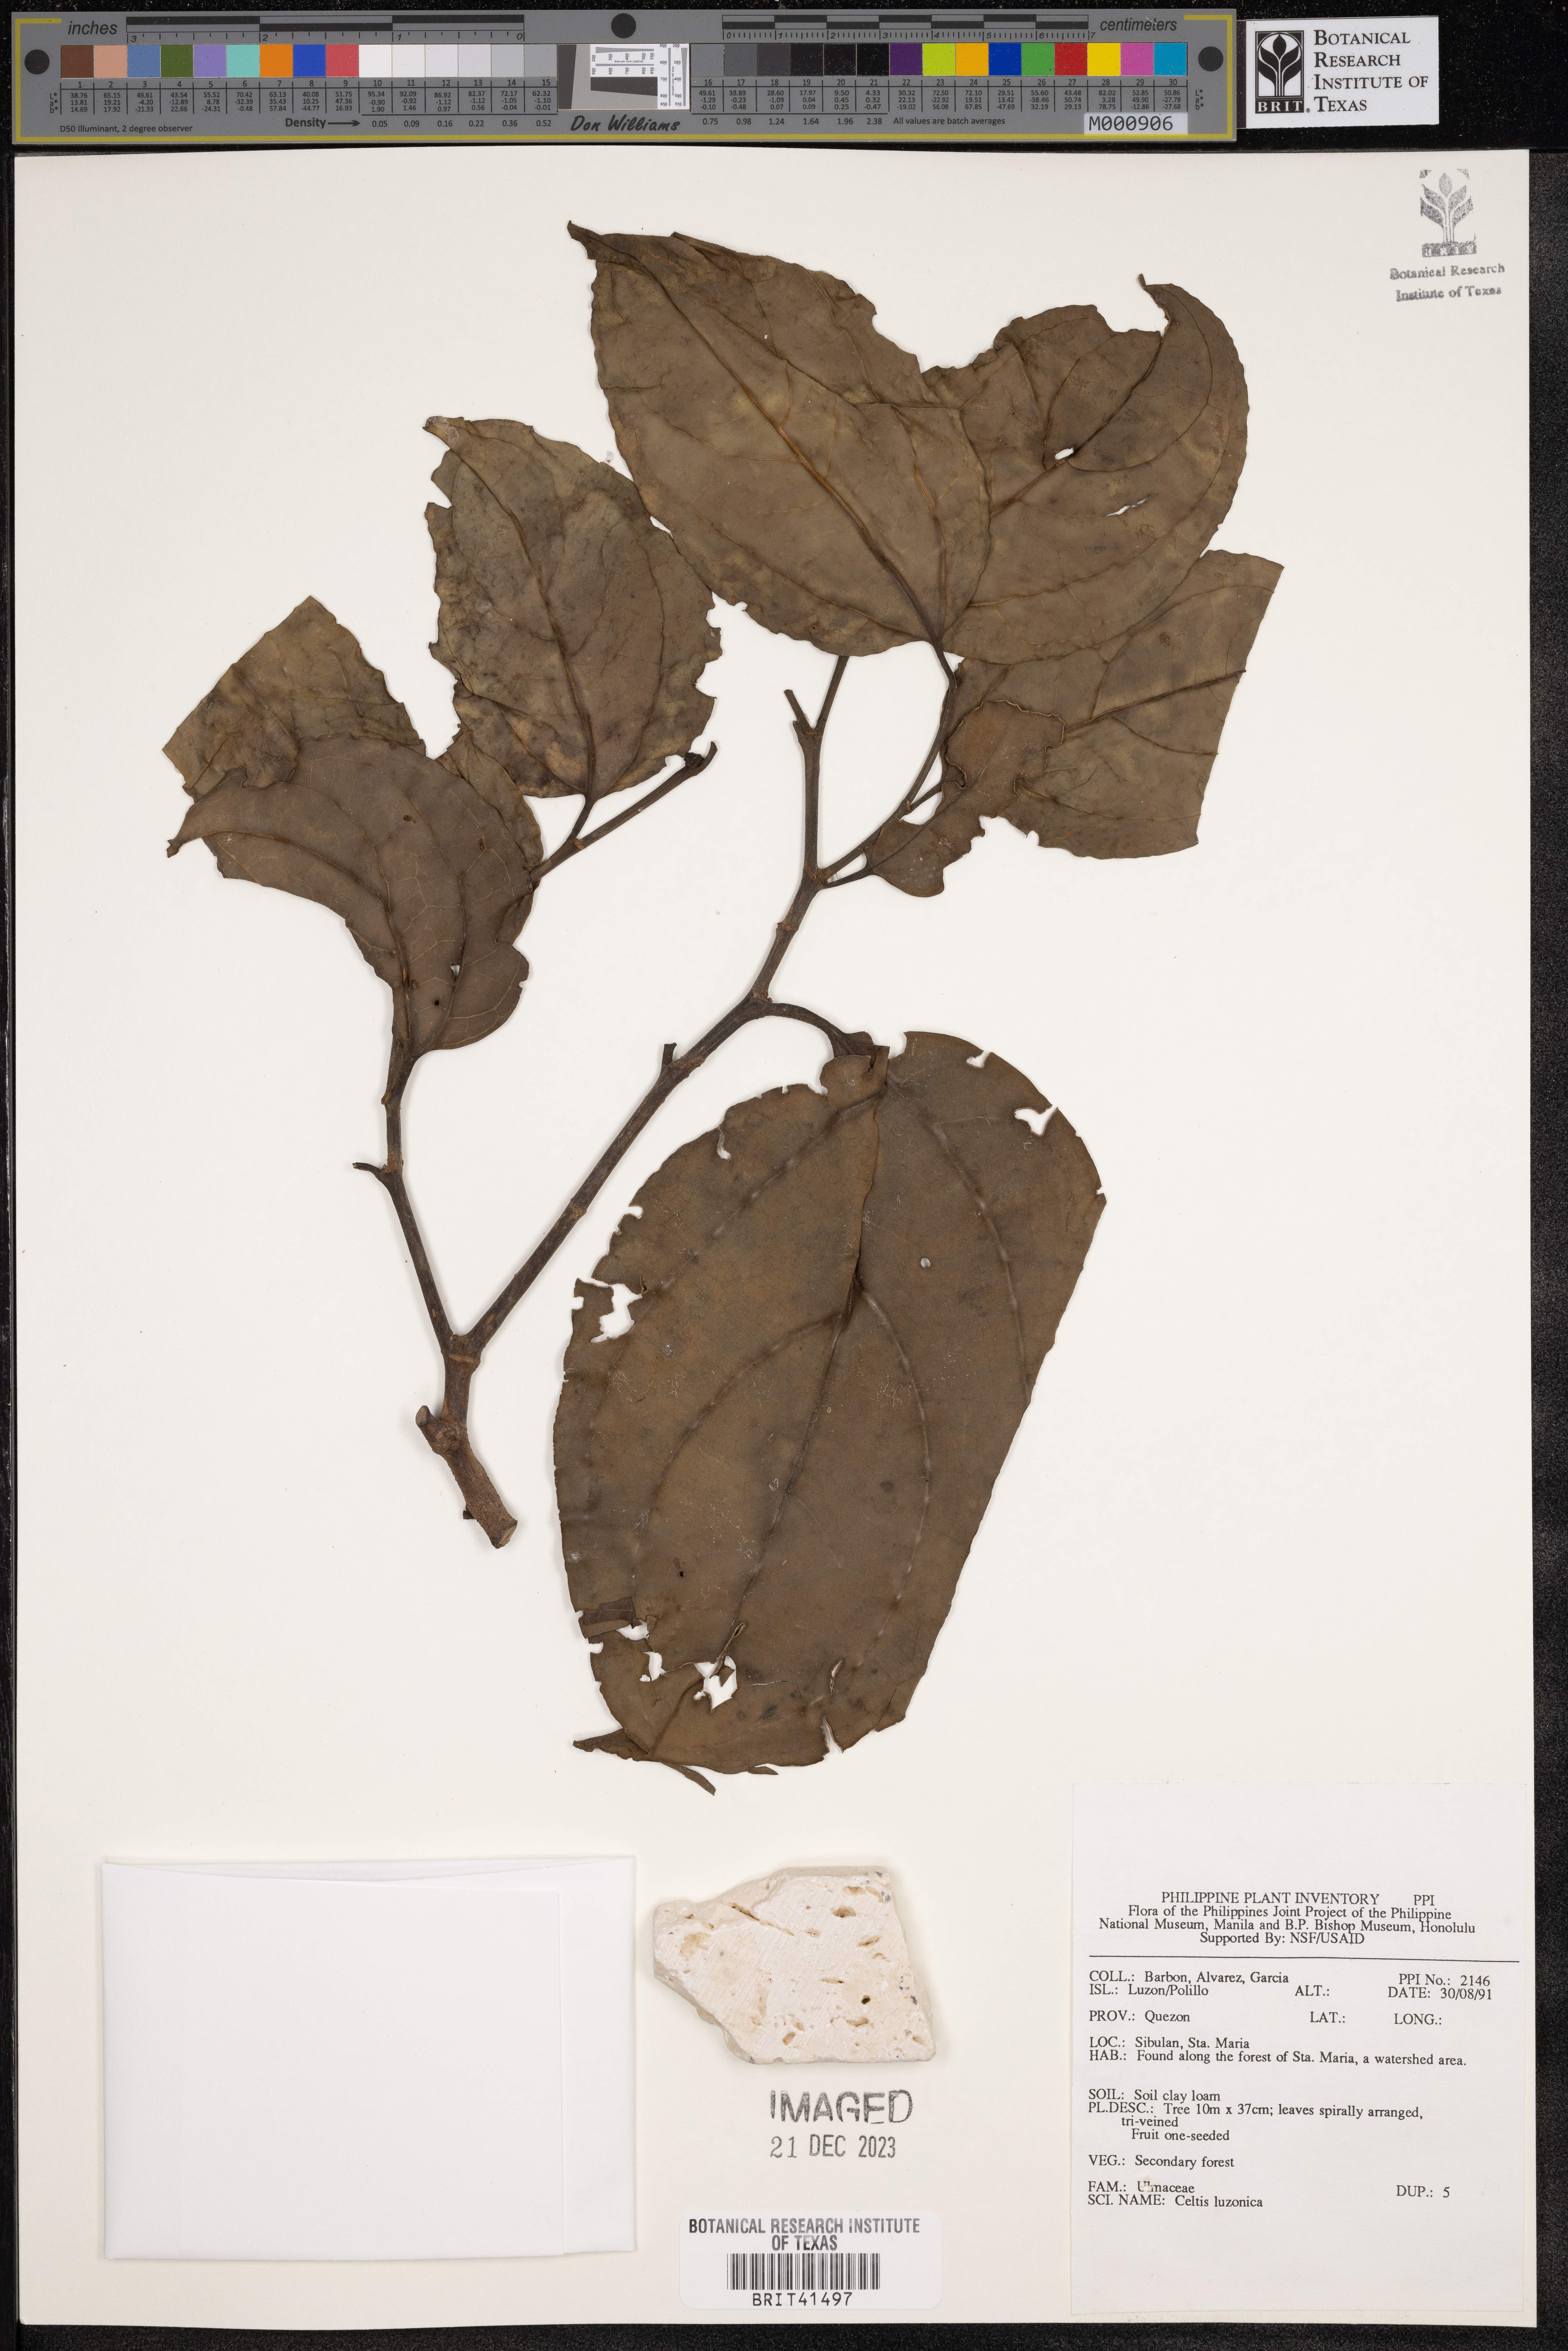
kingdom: Plantae
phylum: Tracheophyta
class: Magnoliopsida
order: Rosales
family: Cannabaceae
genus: Celtis
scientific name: Celtis luzonica
